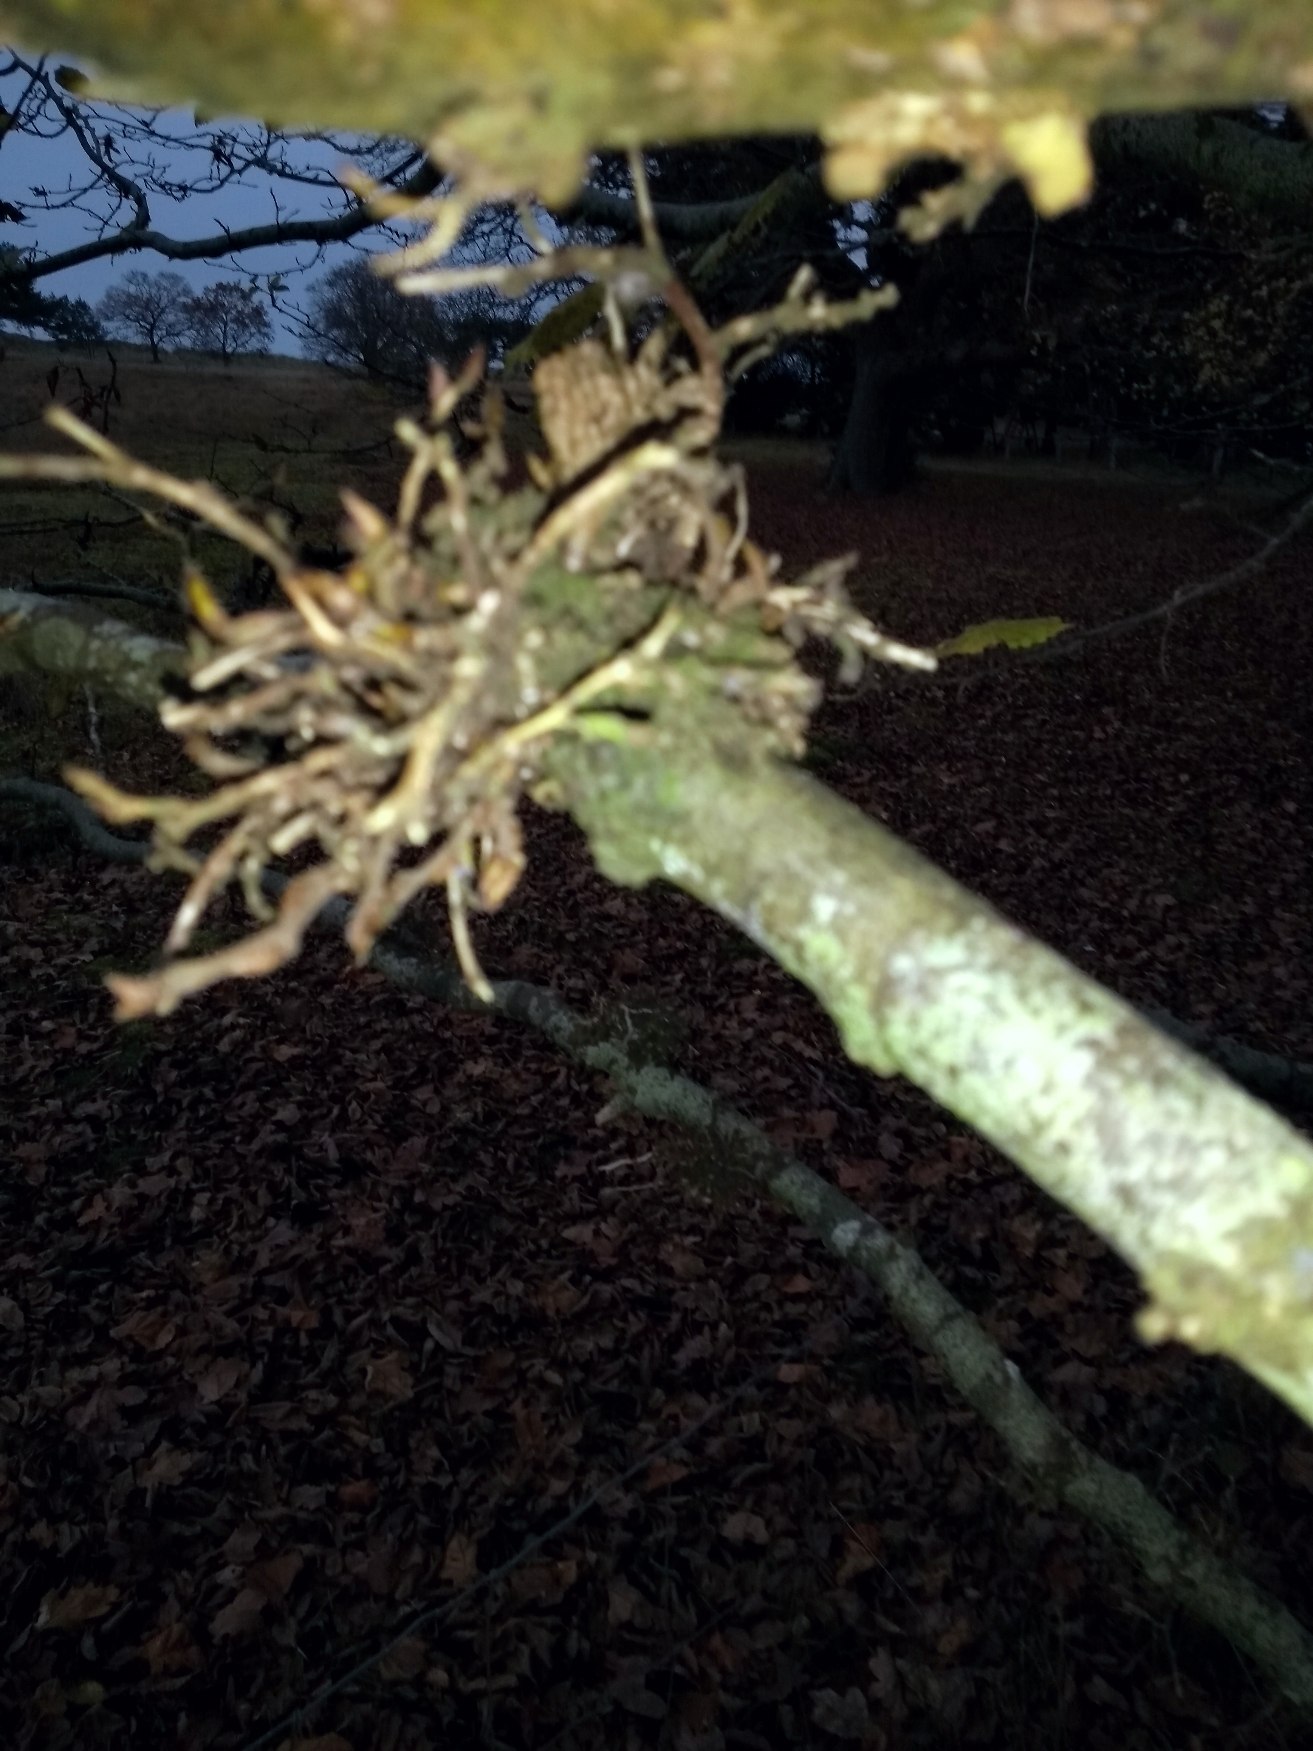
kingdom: Plantae
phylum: Tracheophyta
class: Magnoliopsida
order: Fagales
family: Fagaceae
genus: Fagus
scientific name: Fagus sylvatica
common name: Bøg
